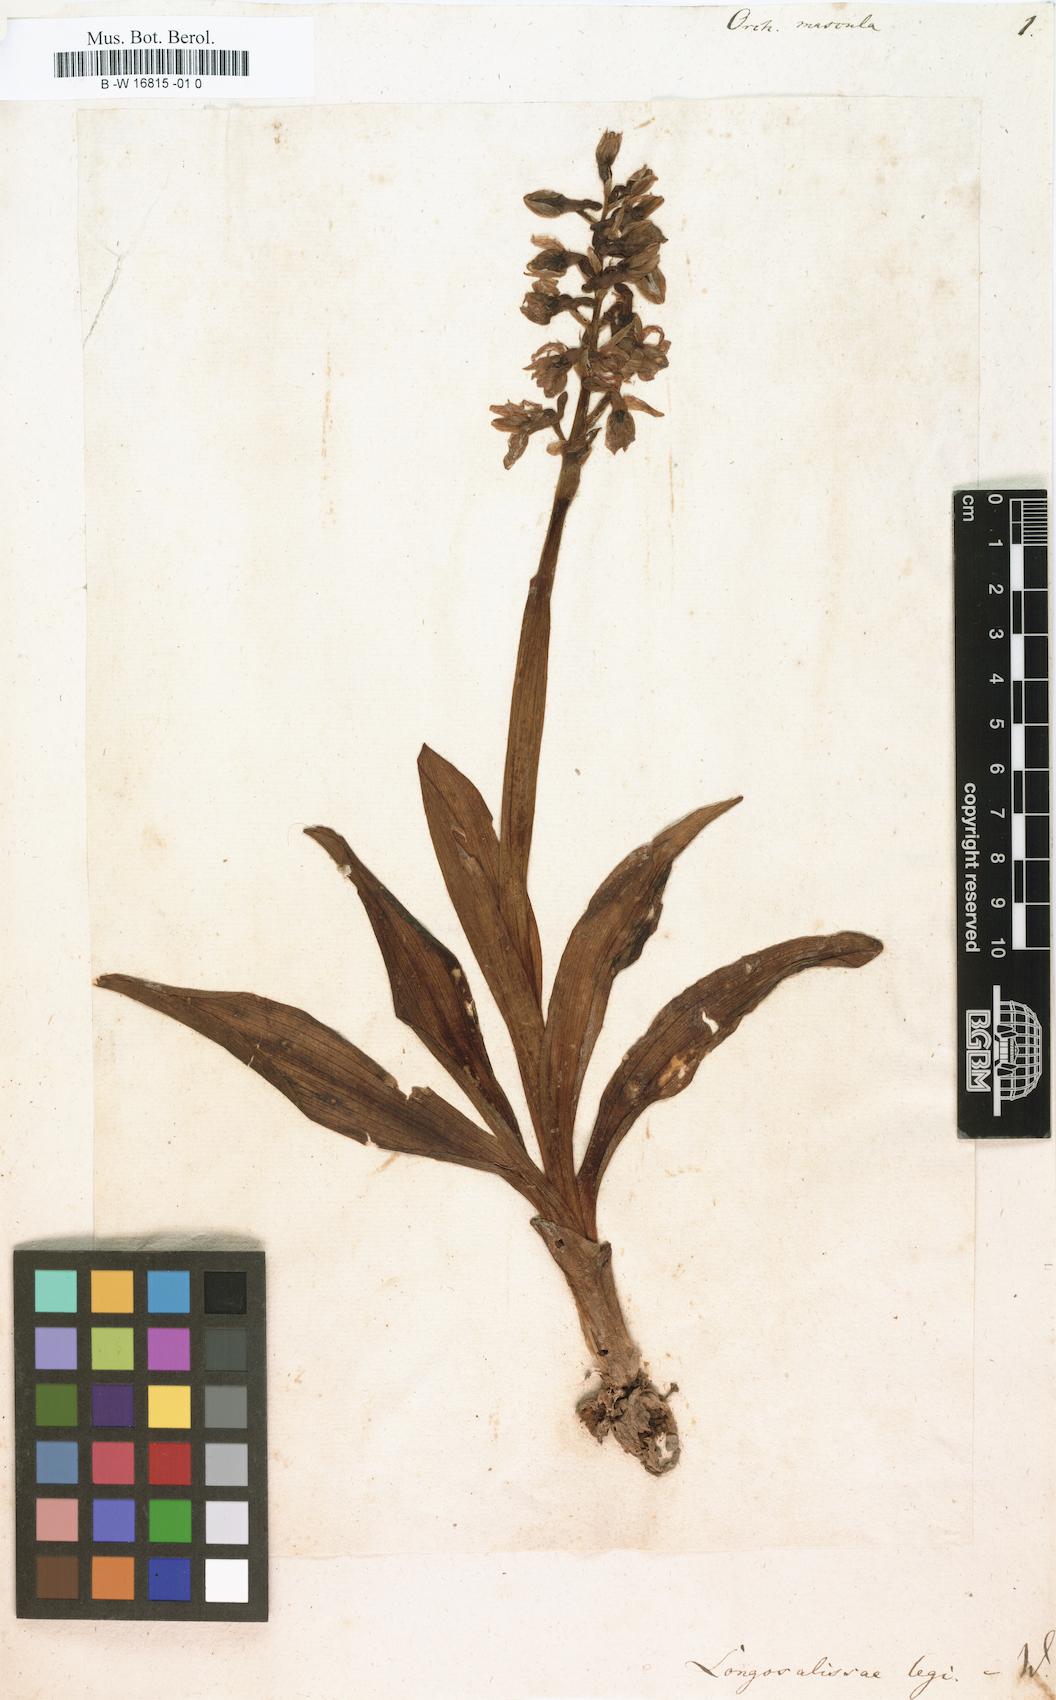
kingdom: Plantae
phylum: Tracheophyta
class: Liliopsida
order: Asparagales
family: Orchidaceae
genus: Orchis
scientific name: Orchis mascula
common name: Early-purple orchid
